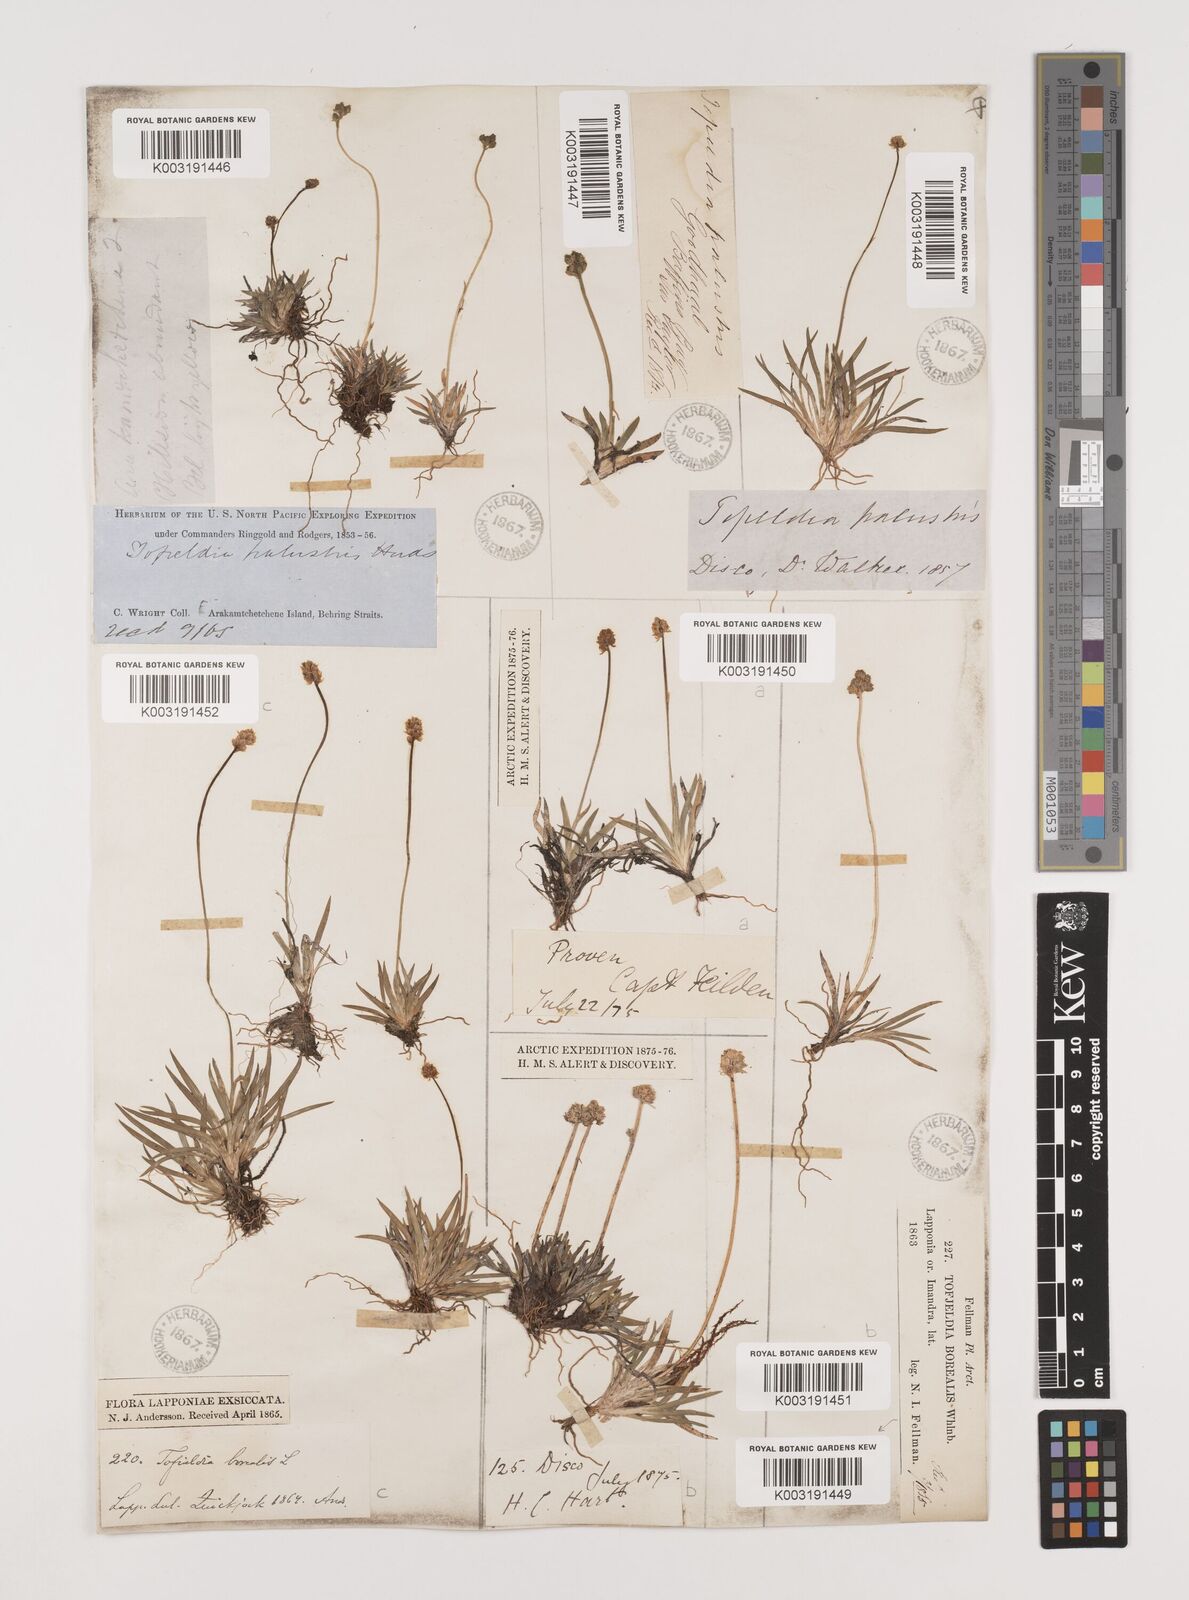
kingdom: Plantae
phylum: Tracheophyta
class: Liliopsida
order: Alismatales
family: Tofieldiaceae
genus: Tofieldia
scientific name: Tofieldia calyculata
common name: German-asphodel
